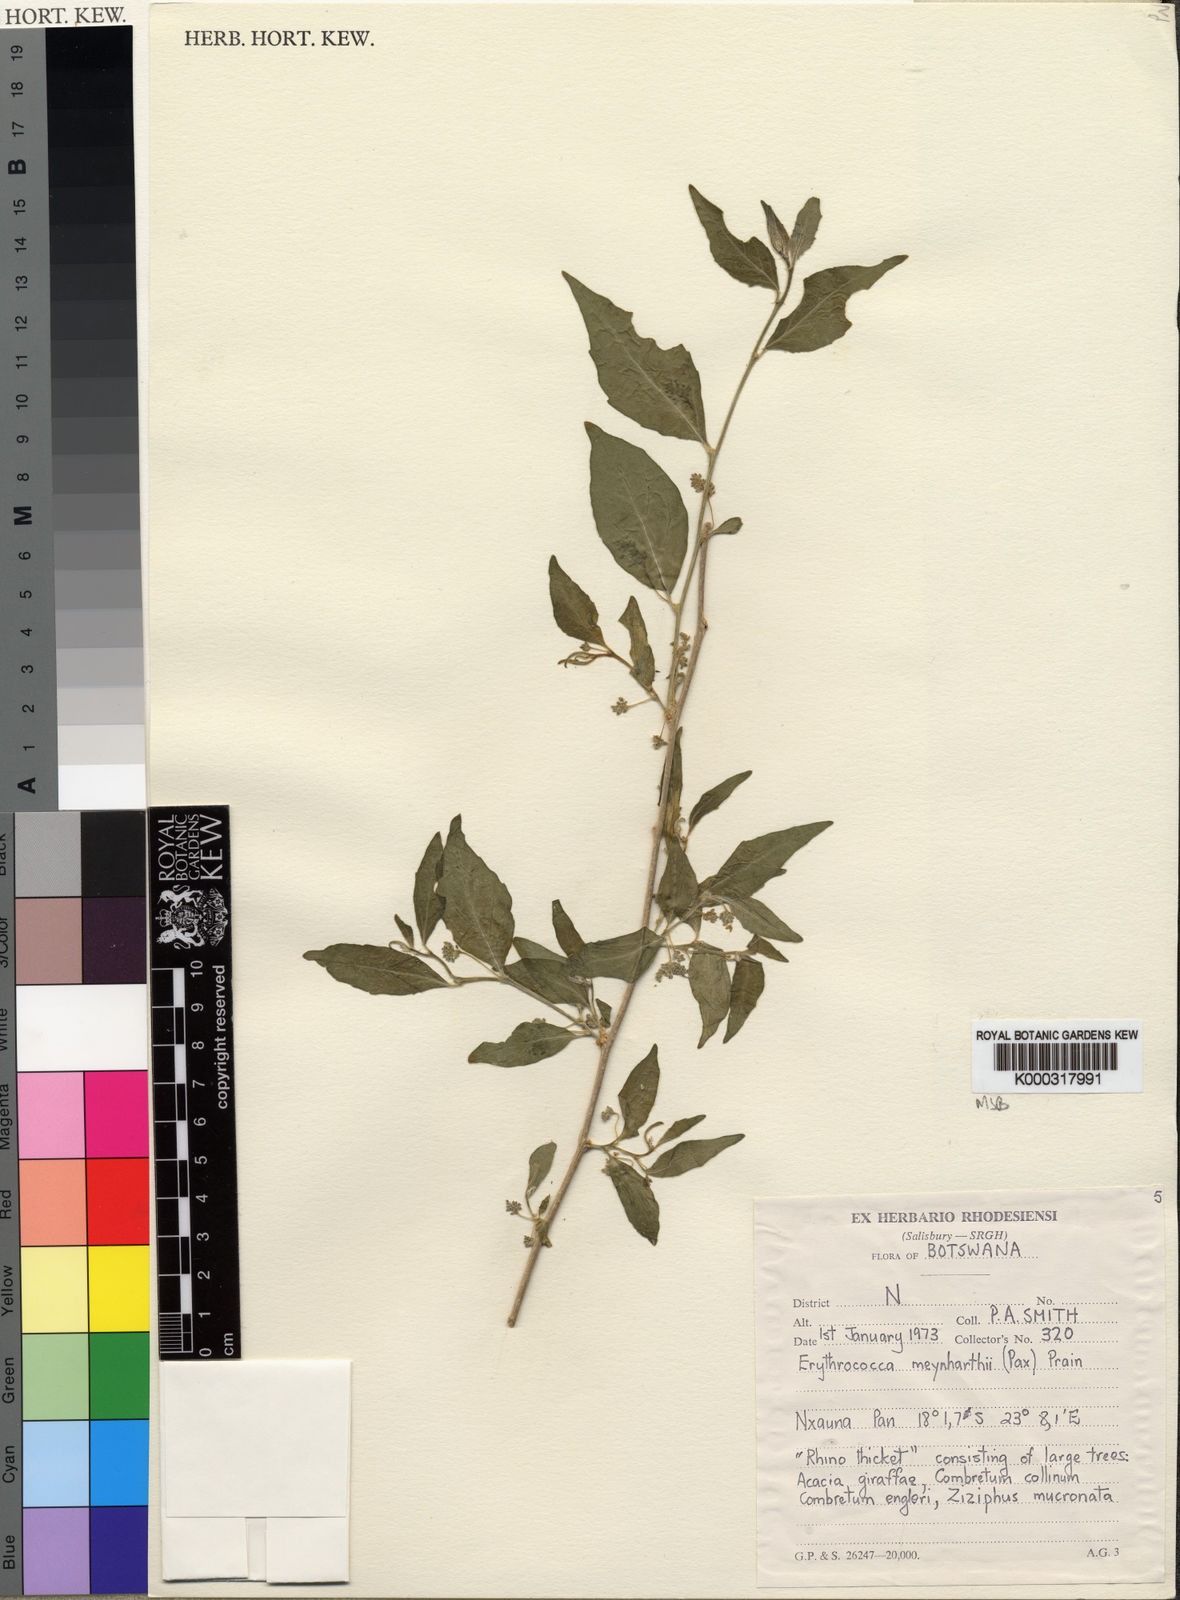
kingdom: Plantae
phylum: Tracheophyta
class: Magnoliopsida
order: Malpighiales
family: Euphorbiaceae
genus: Erythrococca
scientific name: Erythrococca menyharthii
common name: Northern red-berry
